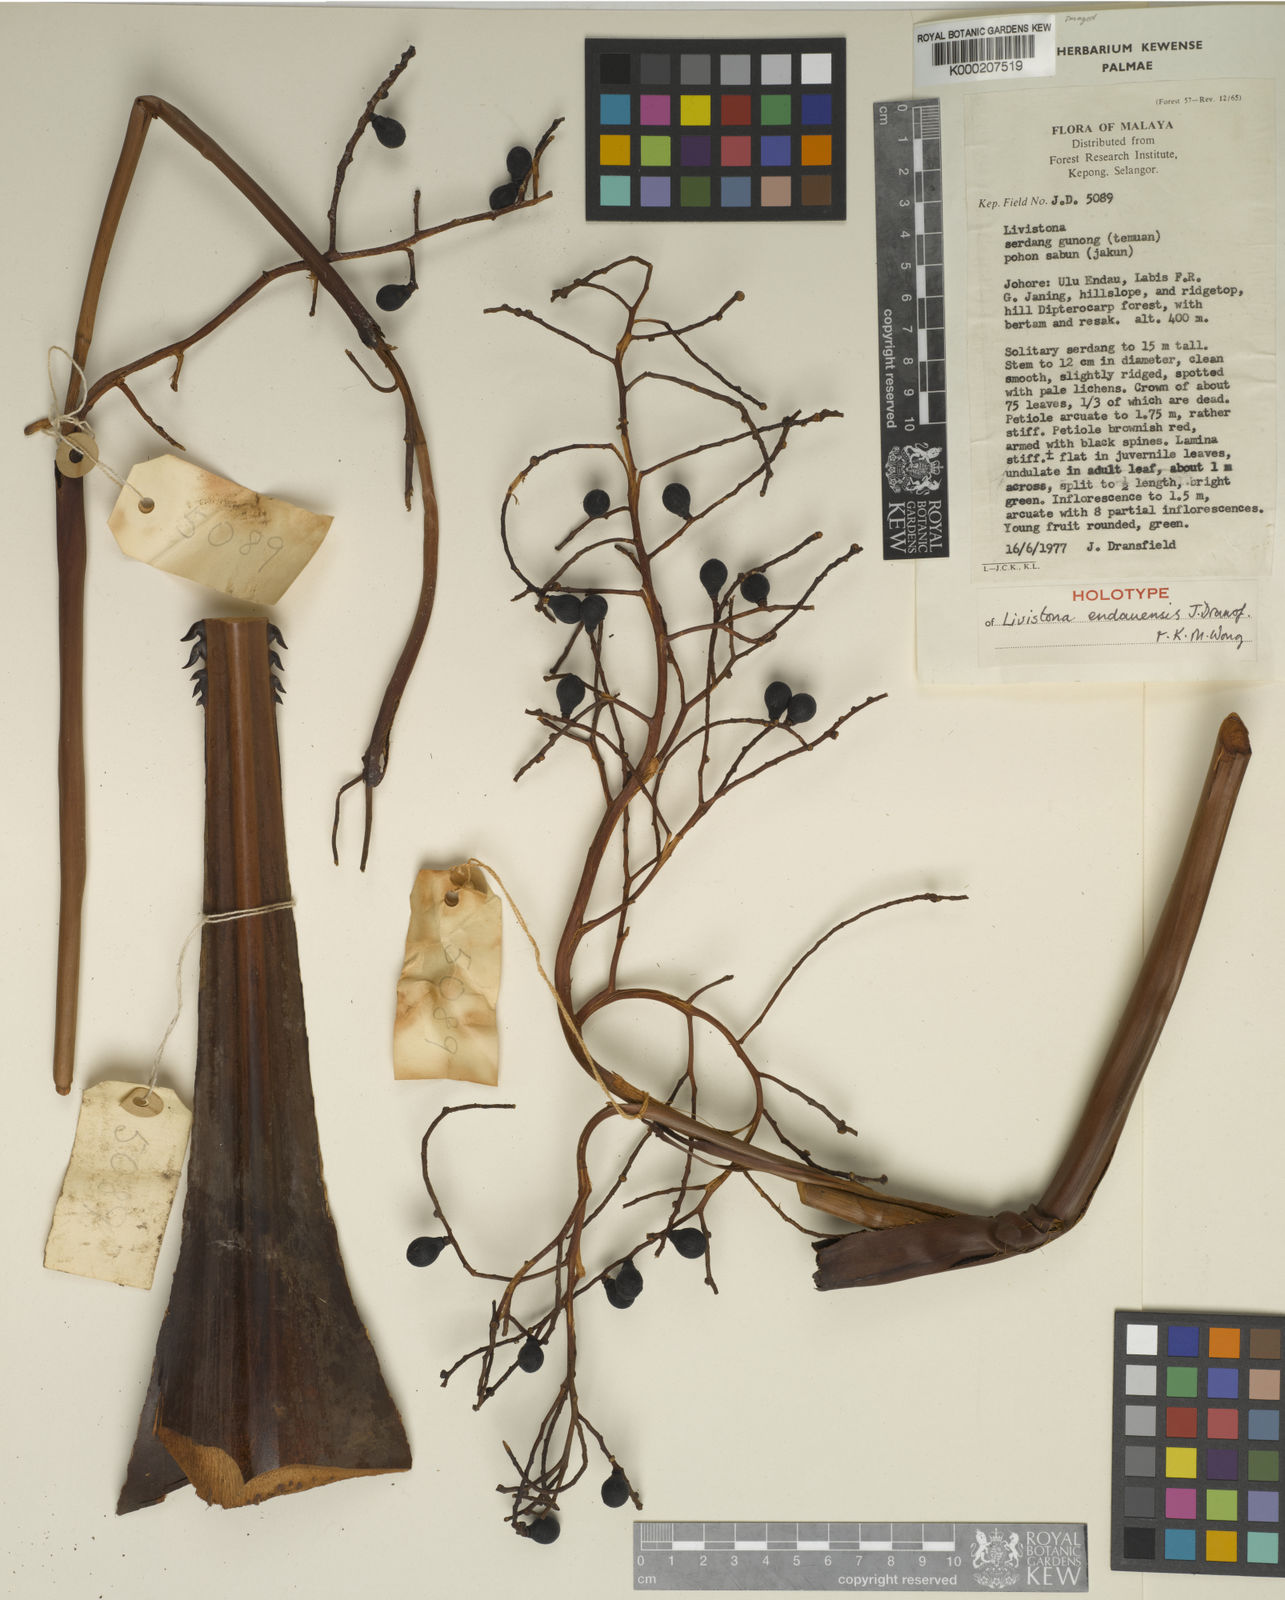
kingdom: Plantae
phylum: Tracheophyta
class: Liliopsida
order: Arecales
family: Arecaceae
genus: Livistona
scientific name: Livistona endauensis
